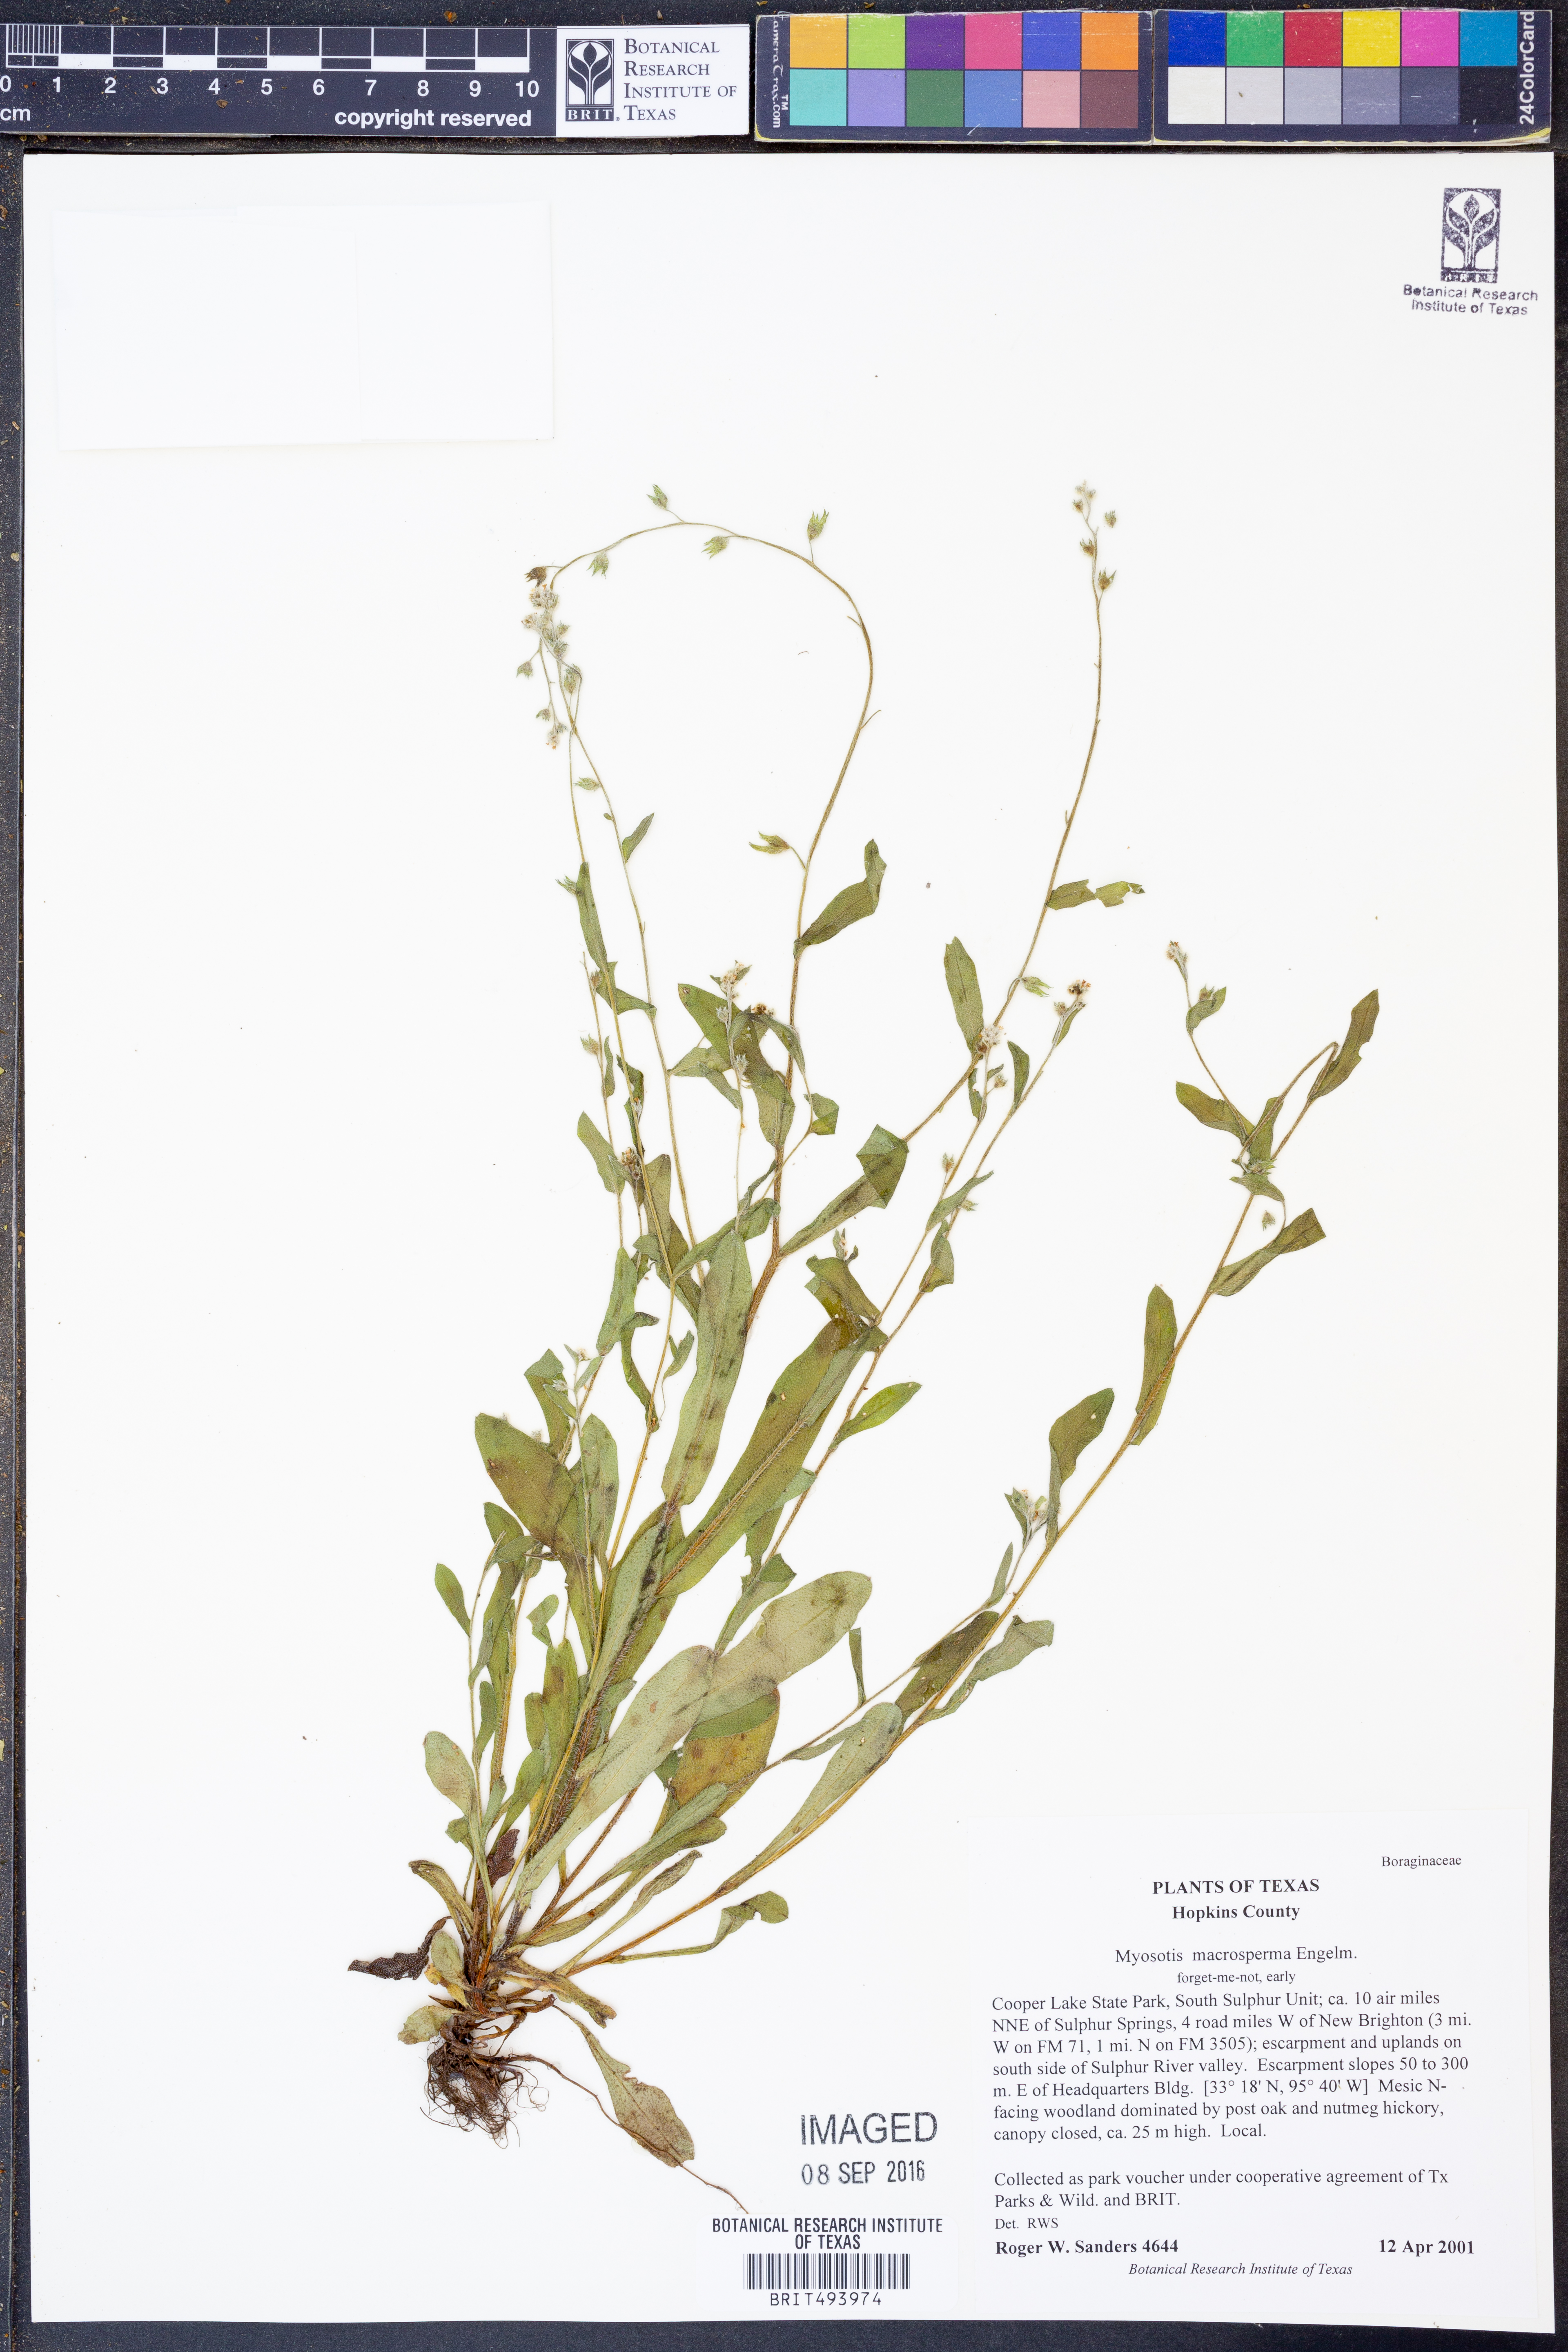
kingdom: Plantae
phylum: Tracheophyta
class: Magnoliopsida
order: Boraginales
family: Boraginaceae
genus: Myosotis
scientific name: Myosotis macrosperma
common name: Large-seed forget-me-not
